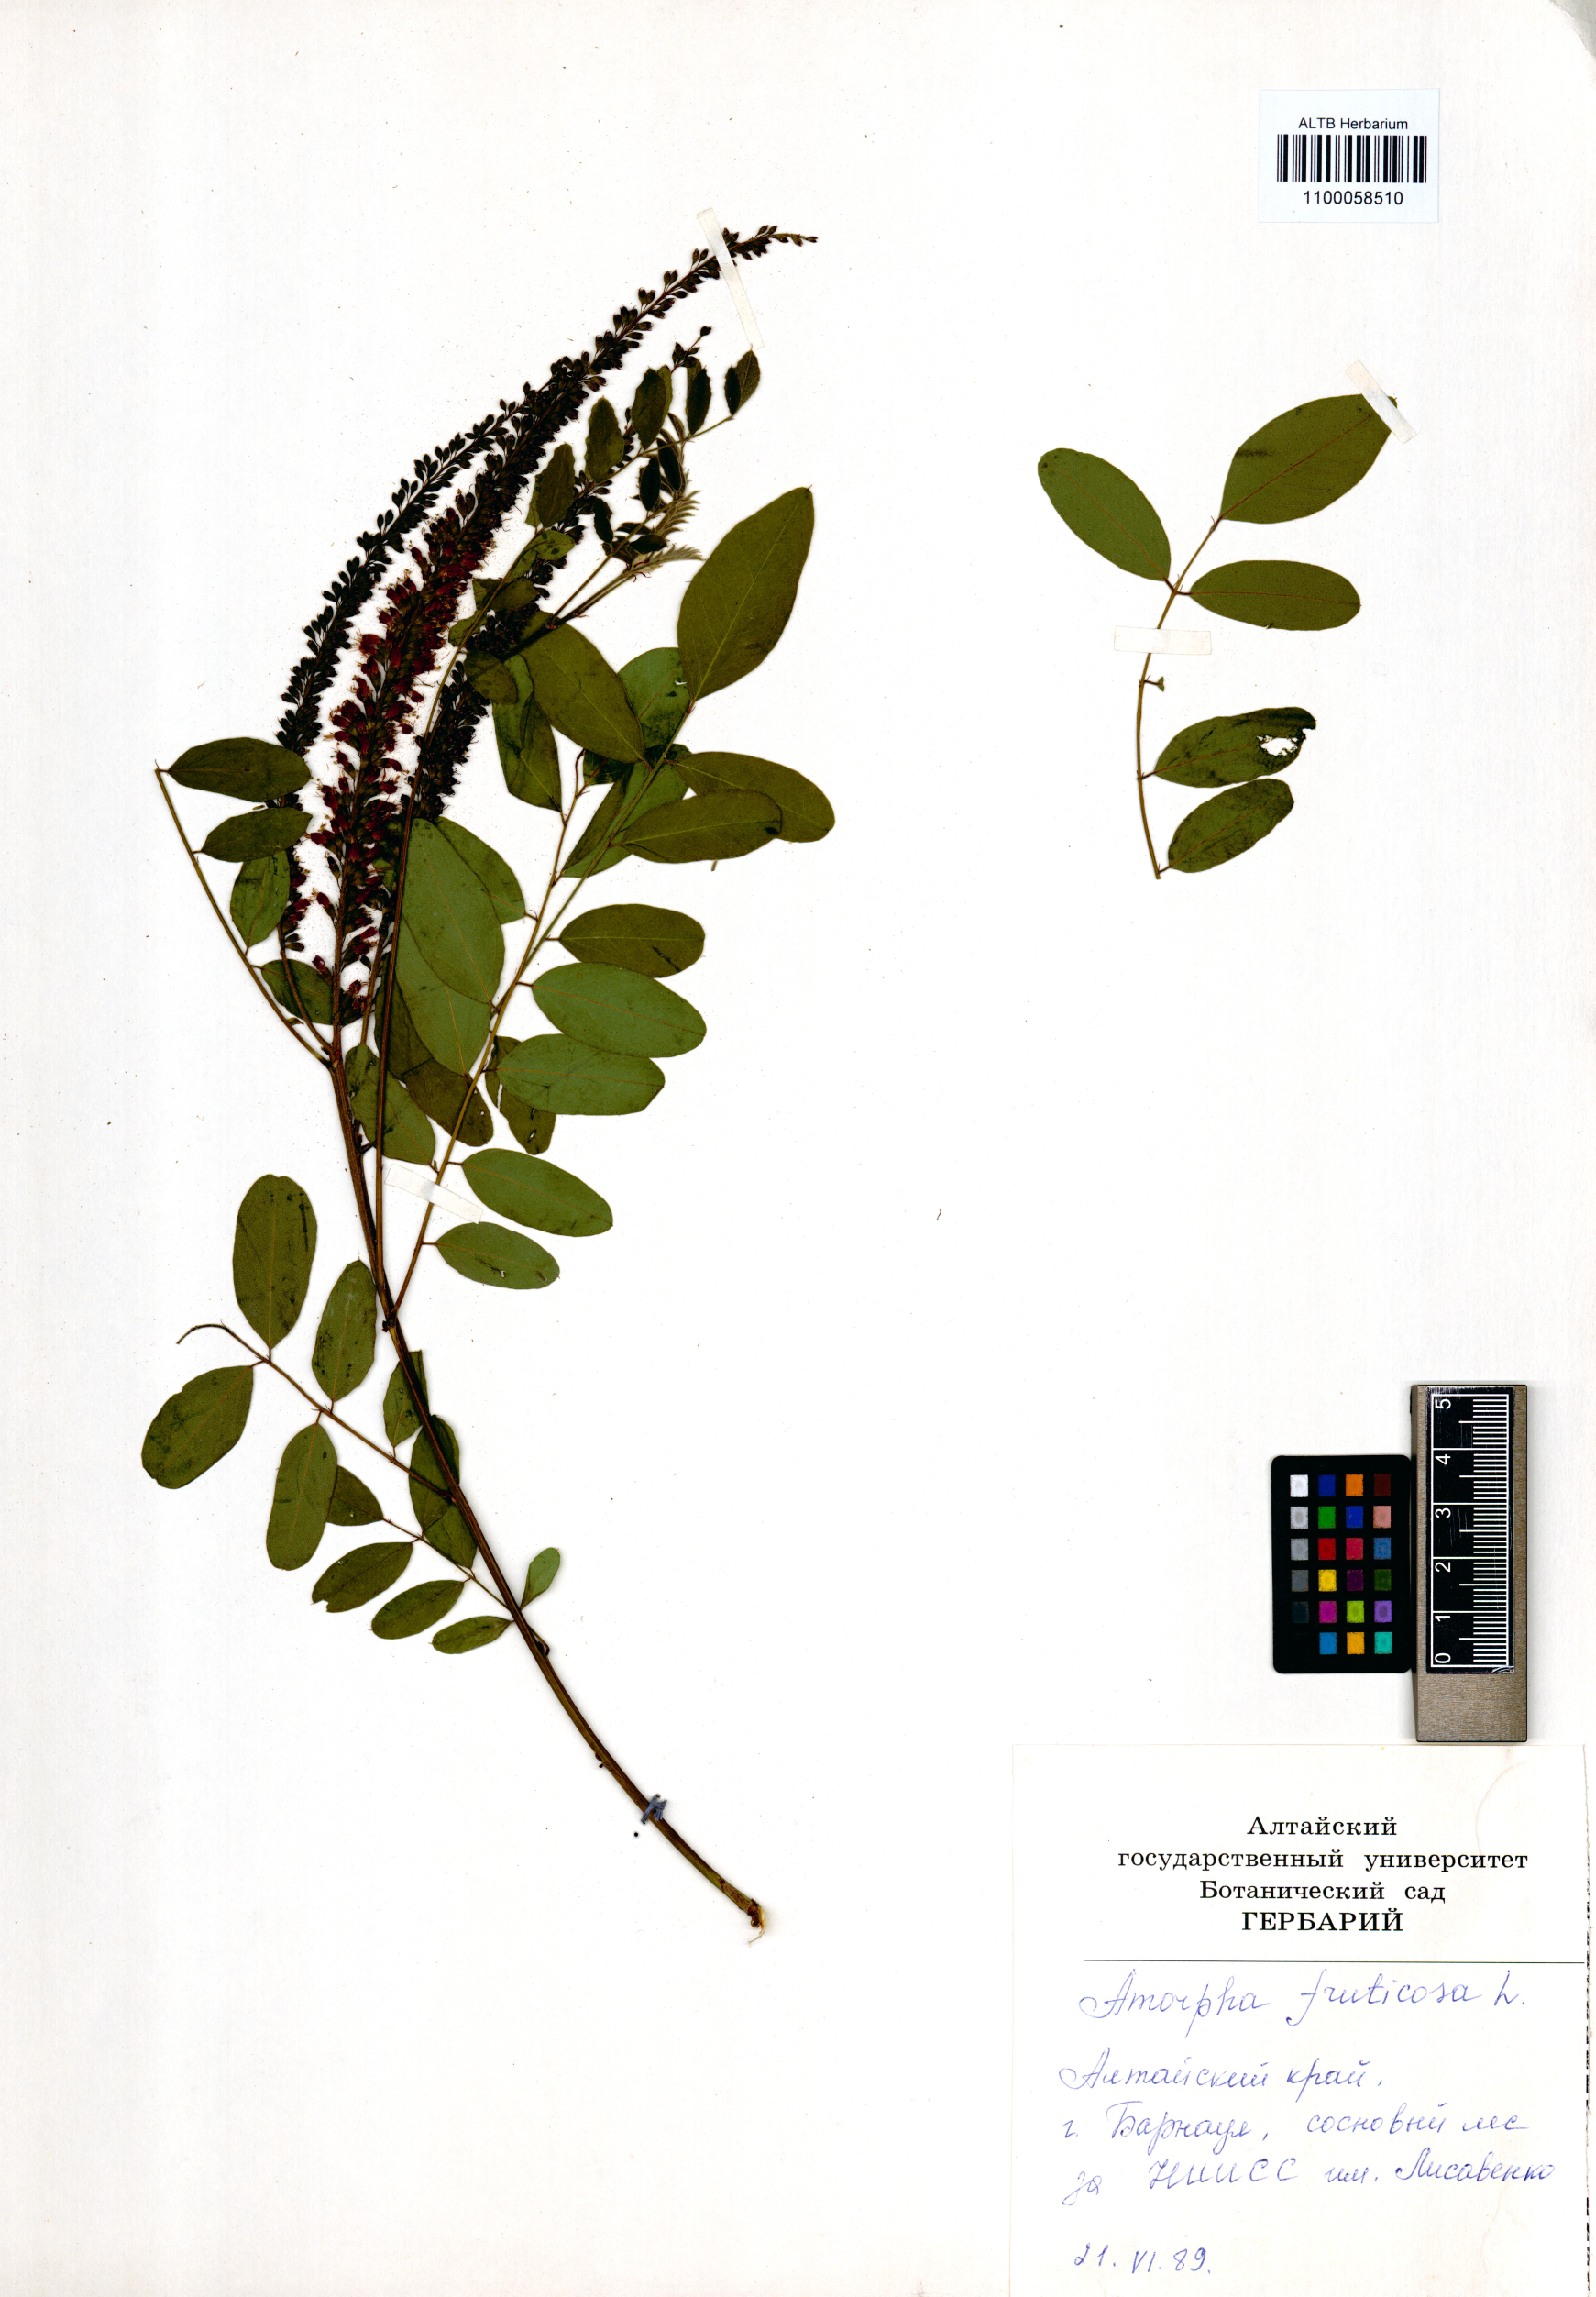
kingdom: Plantae
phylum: Tracheophyta
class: Magnoliopsida
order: Fabales
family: Fabaceae
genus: Amorpha
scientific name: Amorpha fruticosa
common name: False indigo
